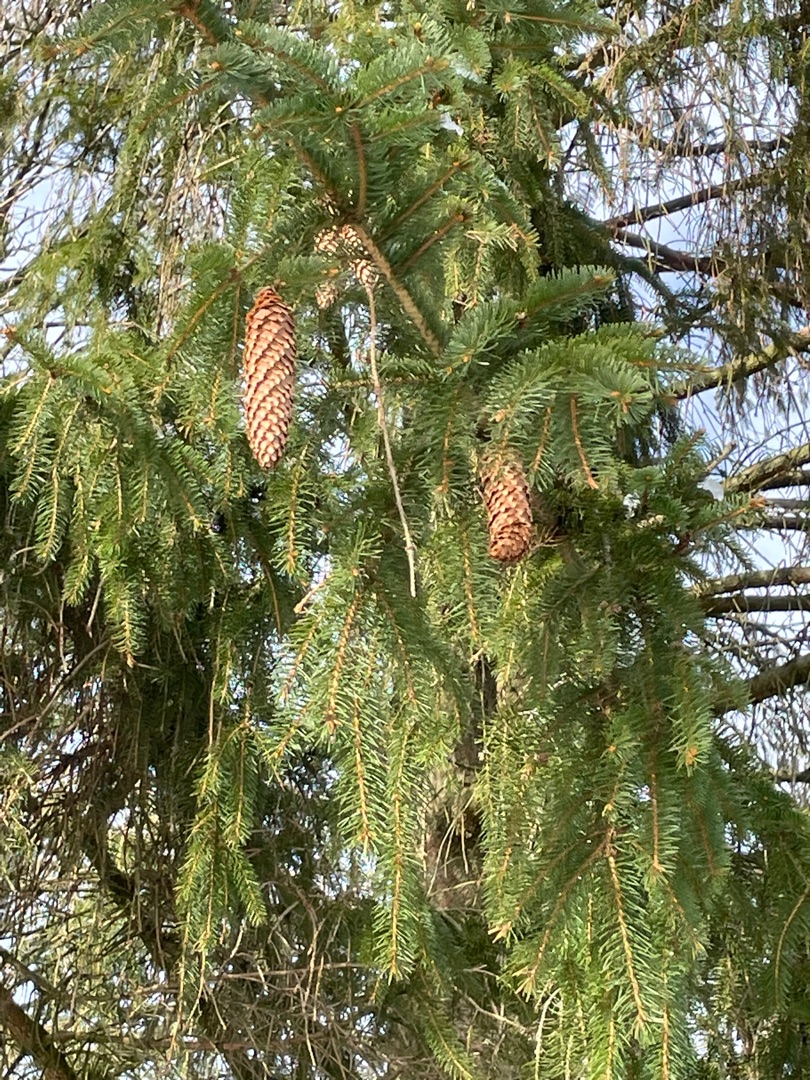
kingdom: Plantae
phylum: Tracheophyta
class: Pinopsida
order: Pinales
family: Pinaceae
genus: Picea
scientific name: Picea abies
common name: Rød-gran
